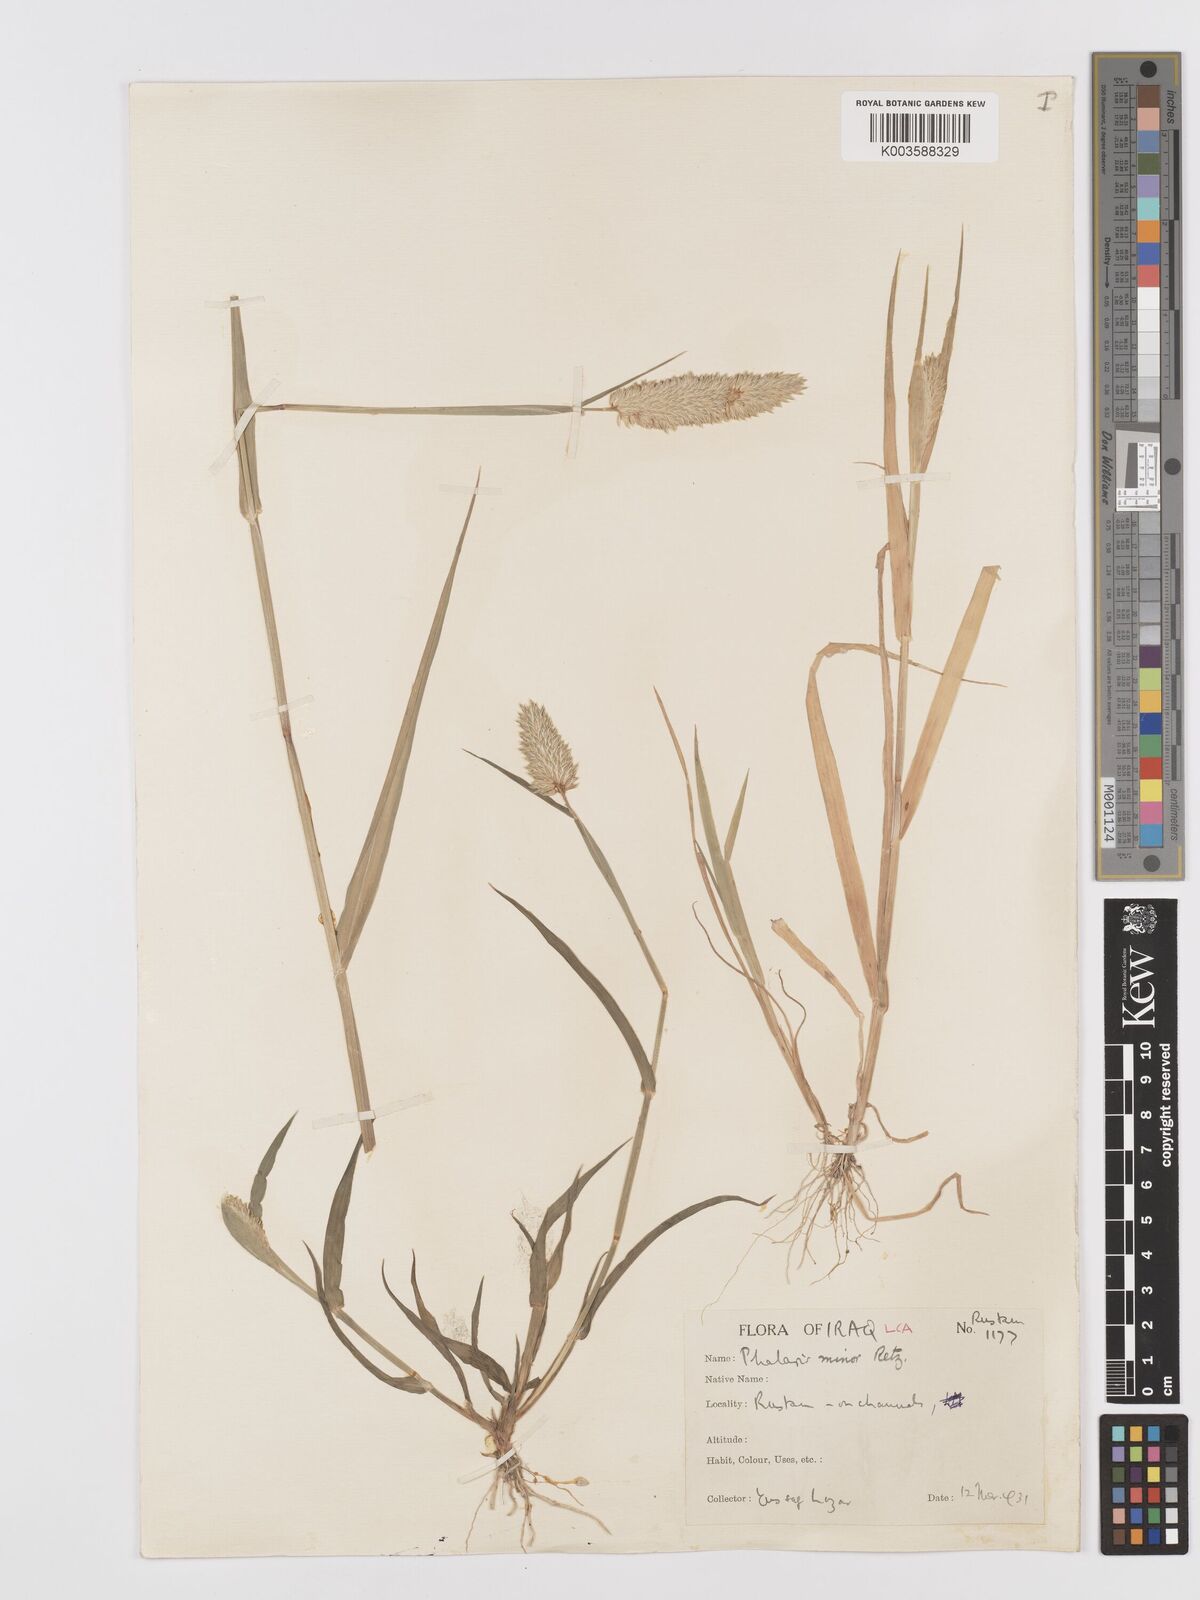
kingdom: Plantae
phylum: Tracheophyta
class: Liliopsida
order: Poales
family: Poaceae
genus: Phalaris
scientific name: Phalaris minor
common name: Littleseed canarygrass
